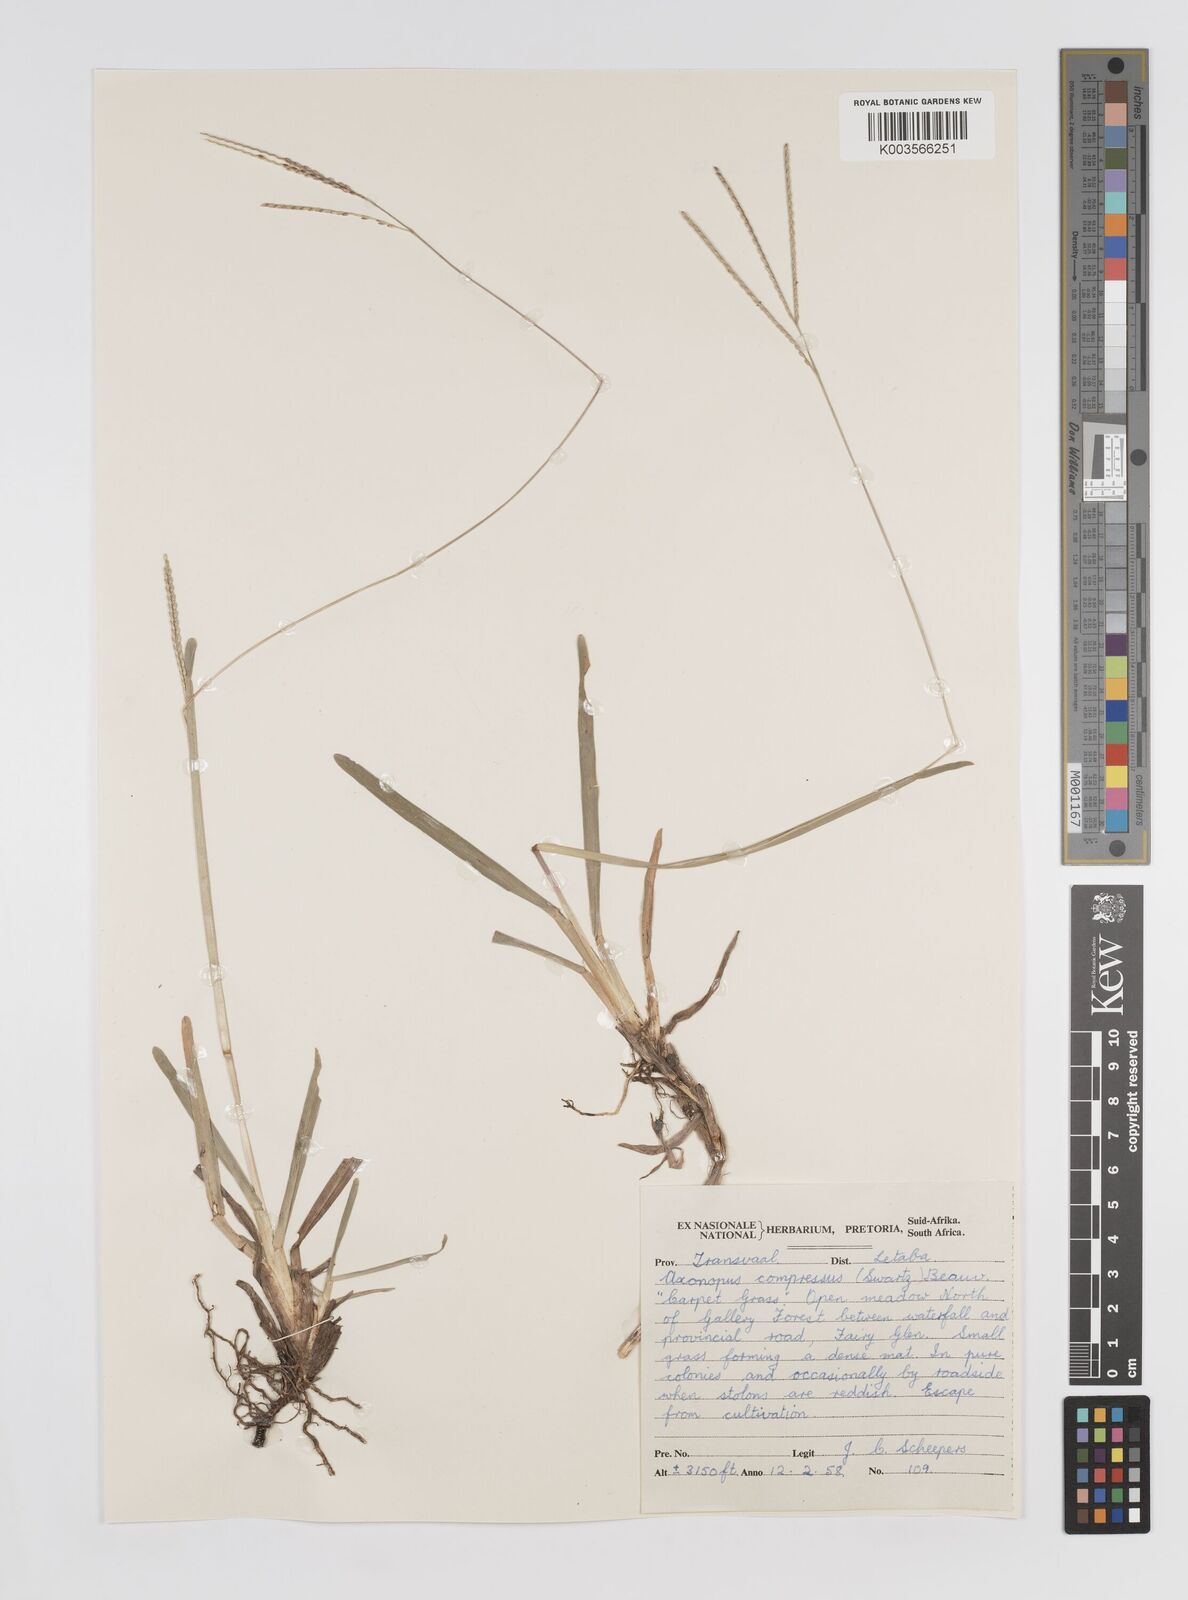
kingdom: Plantae
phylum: Tracheophyta
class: Liliopsida
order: Poales
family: Poaceae
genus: Axonopus
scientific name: Axonopus fissifolius
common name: Common carpetgrass
